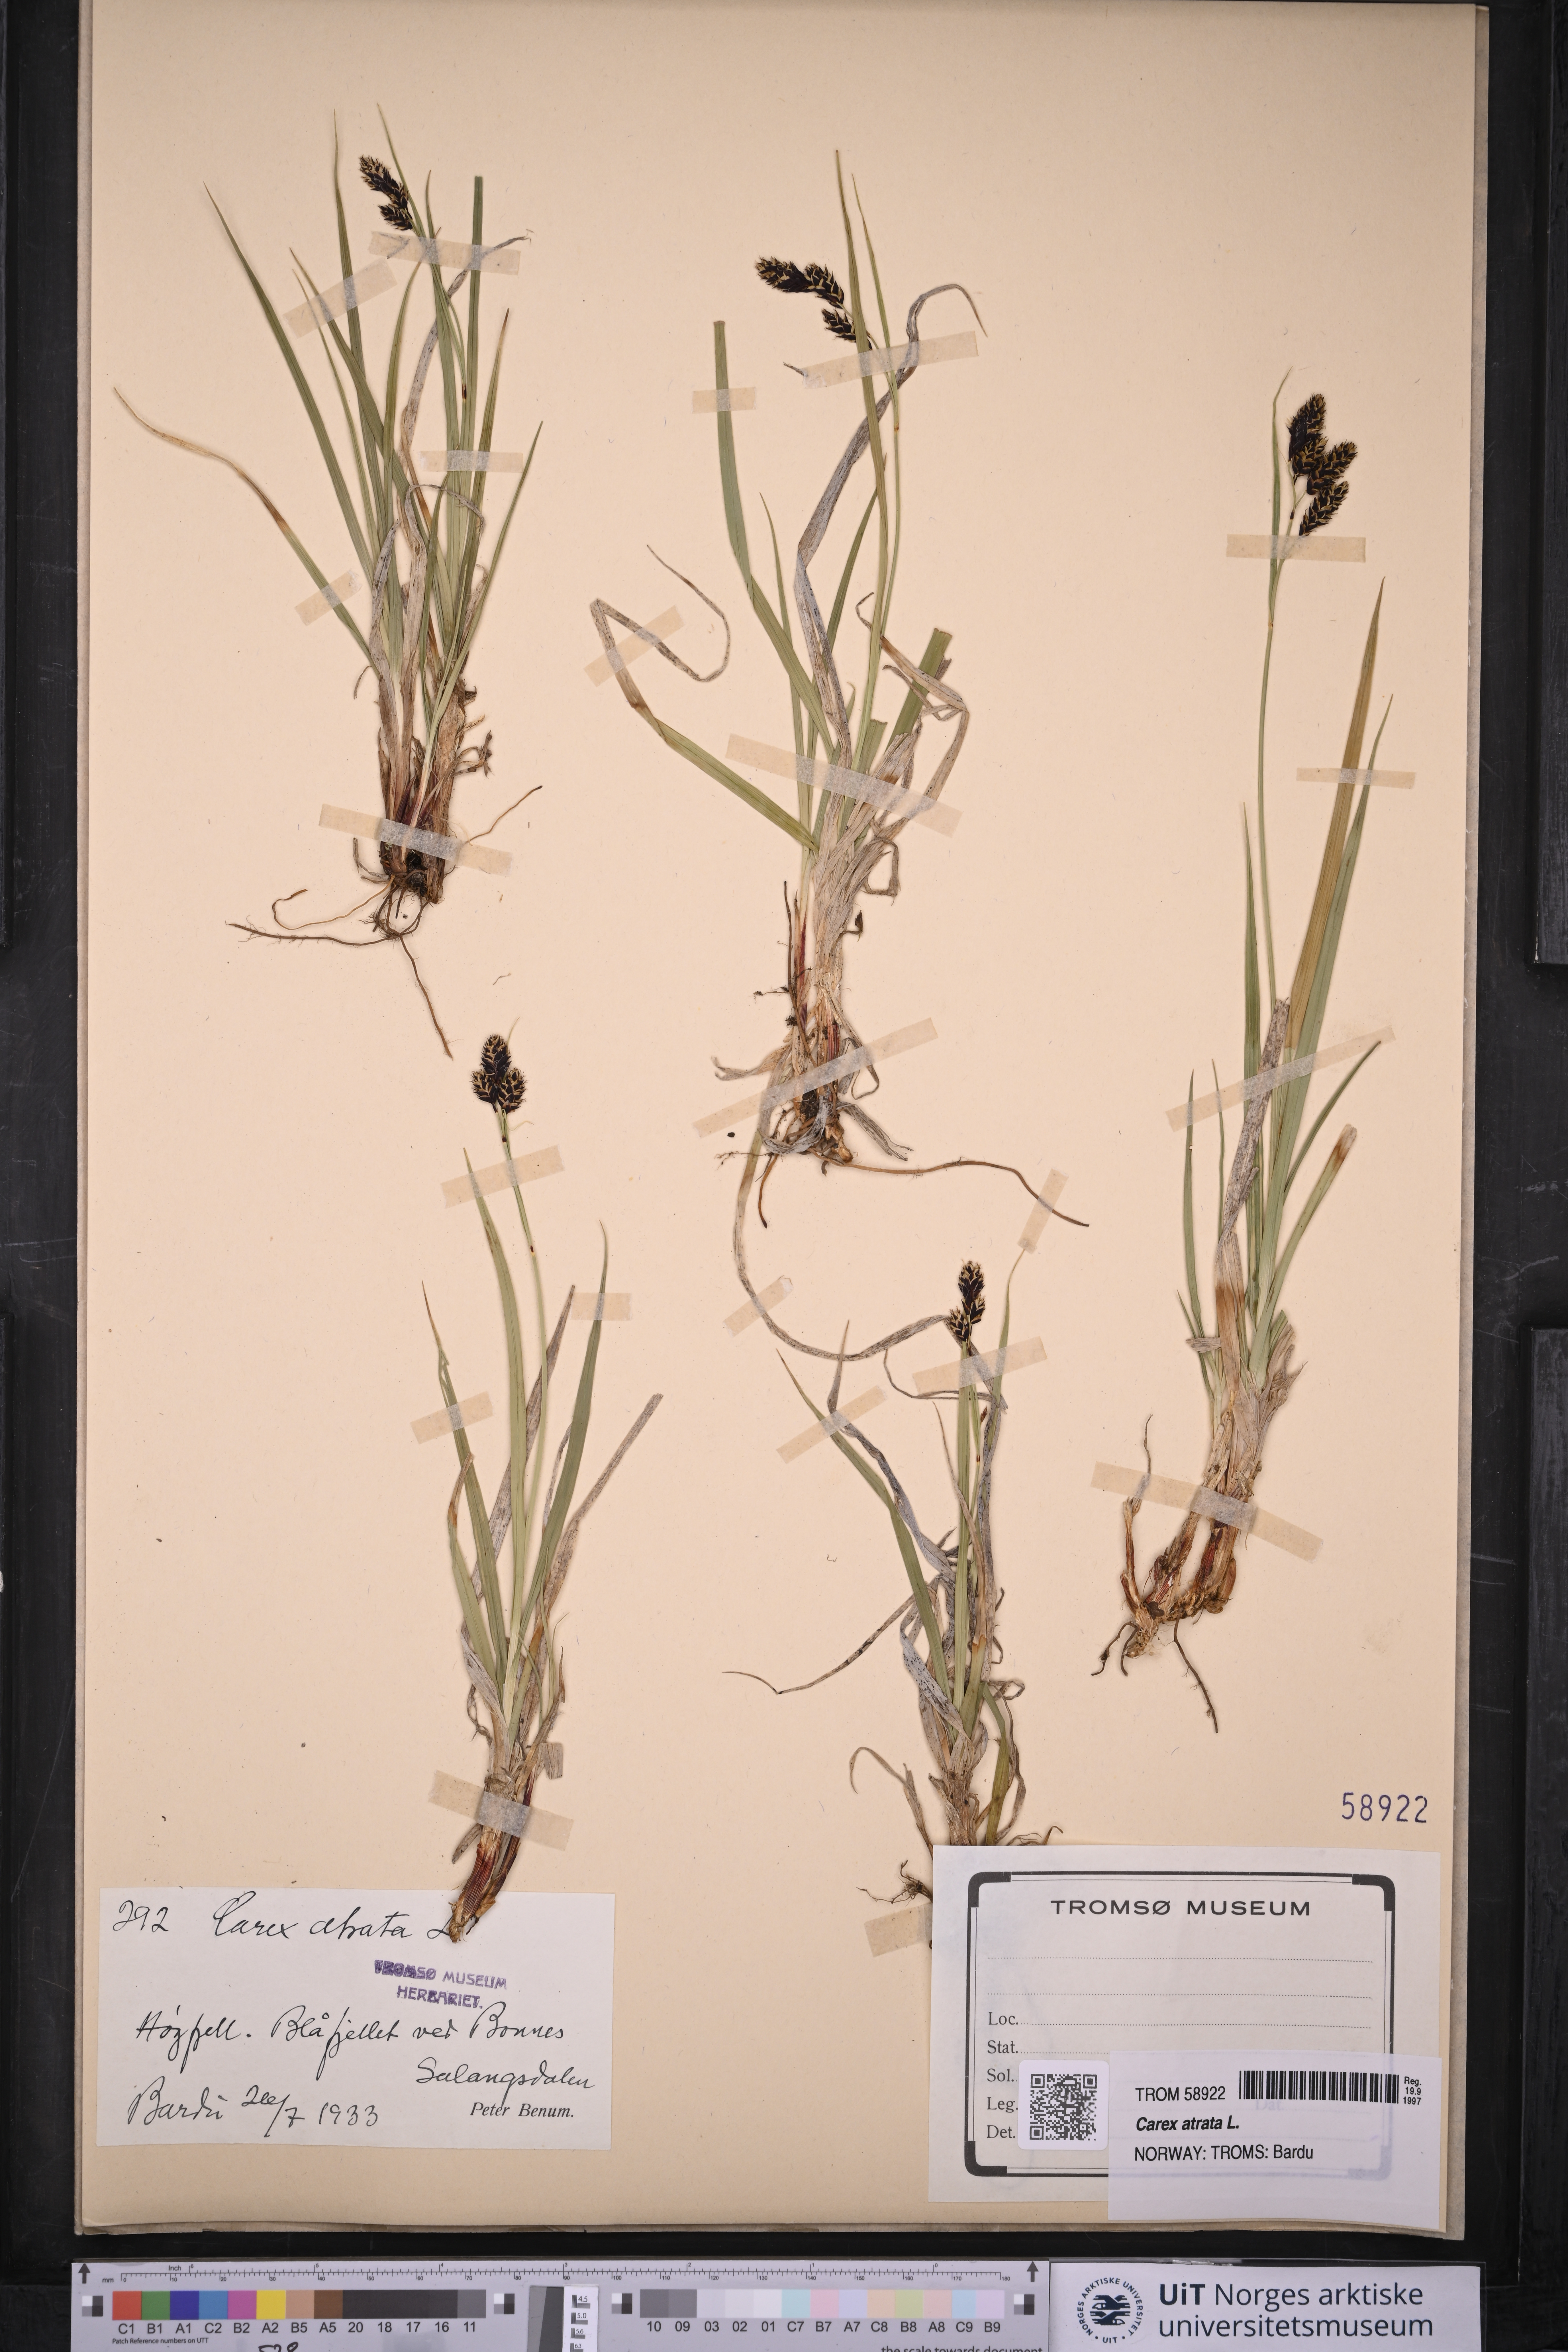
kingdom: Plantae
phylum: Tracheophyta
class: Liliopsida
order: Poales
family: Cyperaceae
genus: Carex
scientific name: Carex atrata
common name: Black alpine sedge
